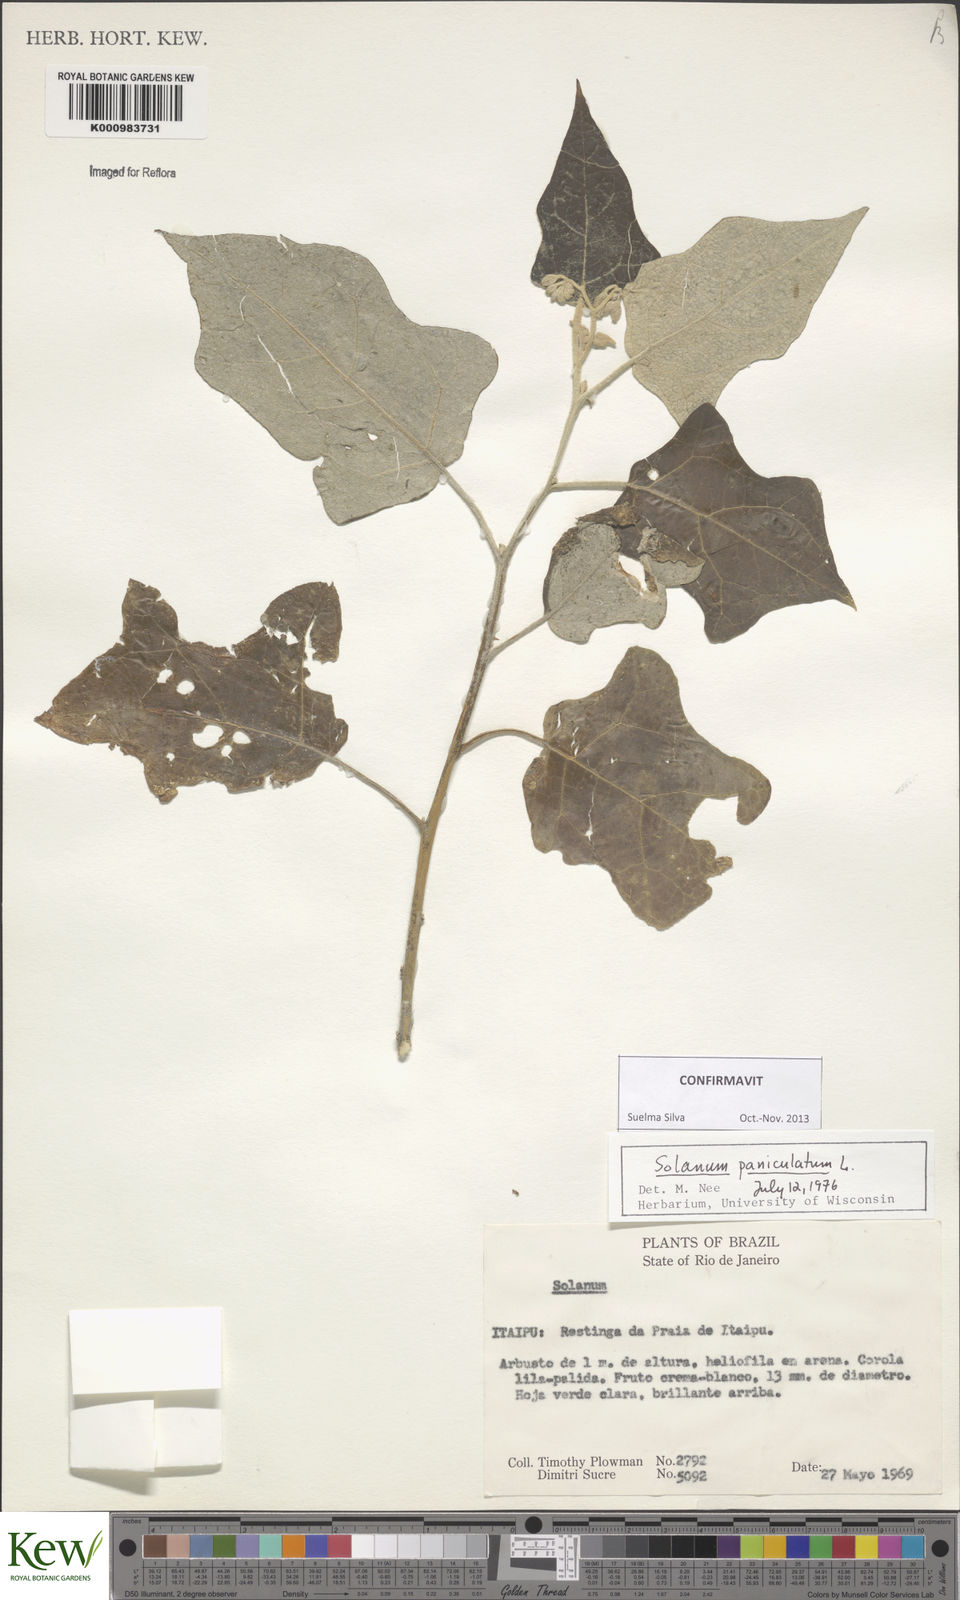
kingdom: Plantae
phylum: Tracheophyta
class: Magnoliopsida
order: Solanales
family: Solanaceae
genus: Solanum
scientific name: Solanum paniculatum
